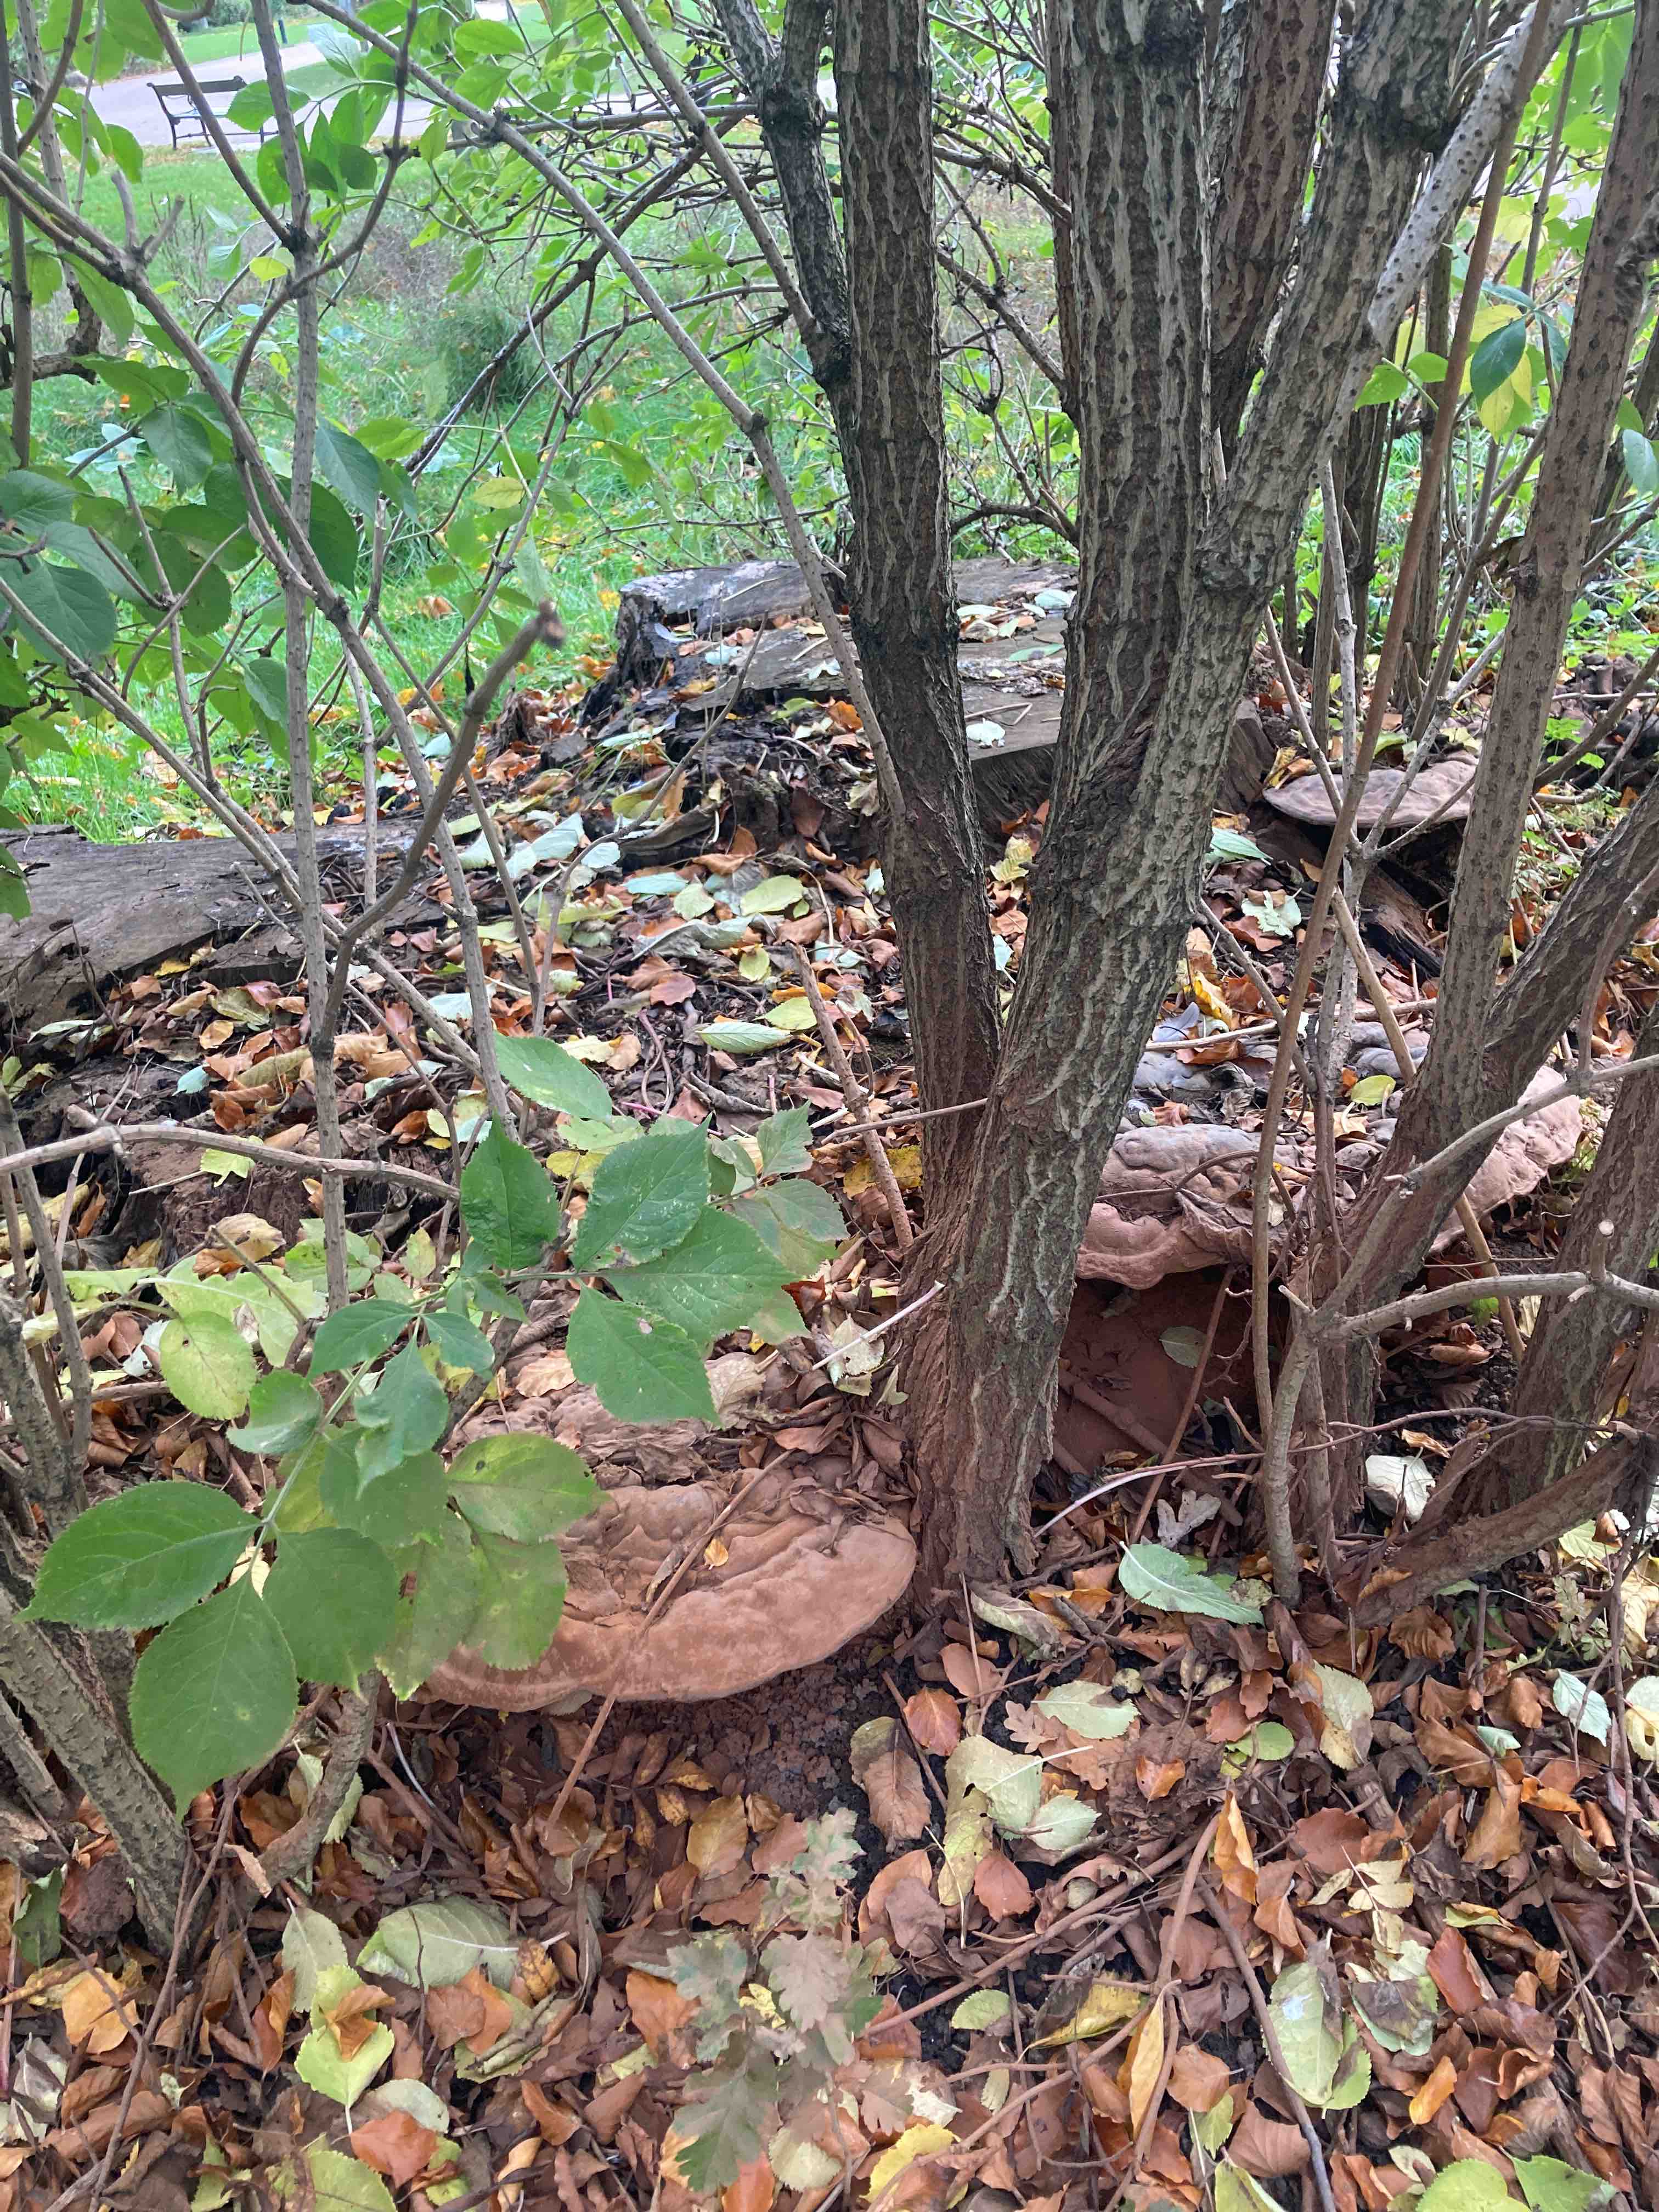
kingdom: Fungi
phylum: Basidiomycota
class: Agaricomycetes
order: Polyporales
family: Polyporaceae
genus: Ganoderma
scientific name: Ganoderma pfeifferi
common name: kobberrød lakporesvamp
